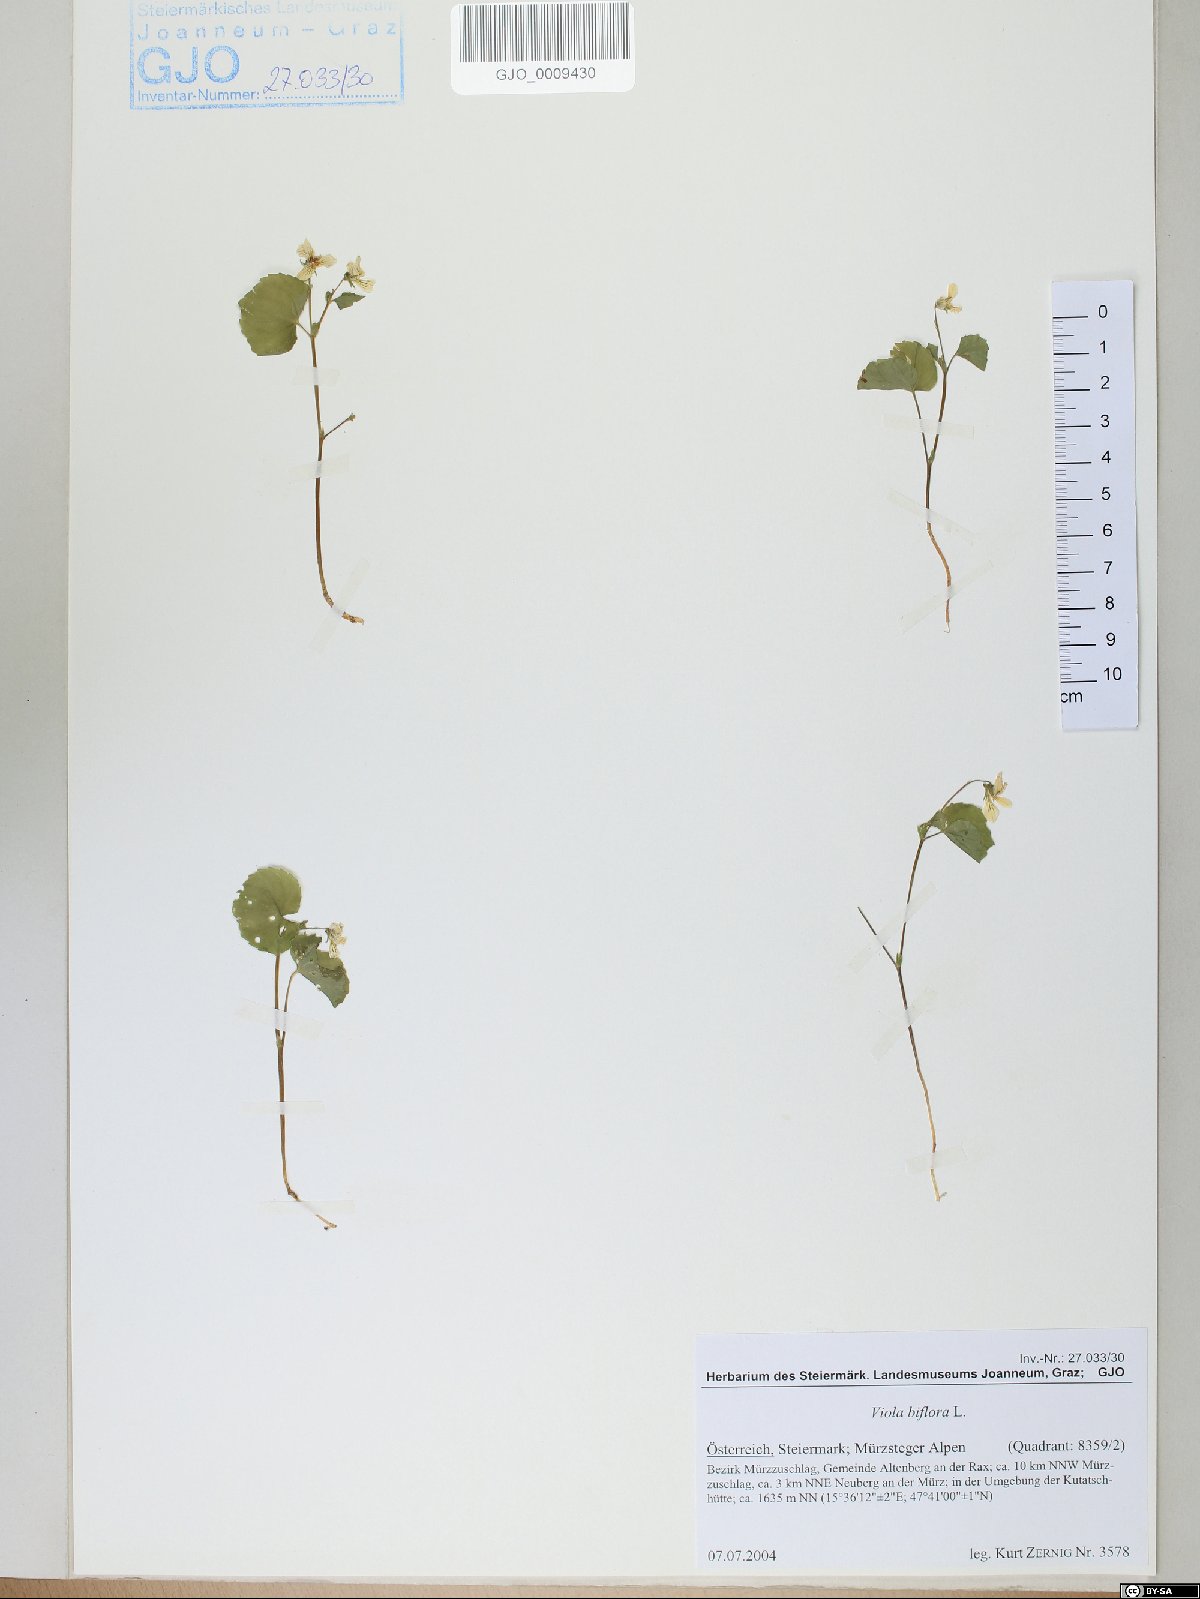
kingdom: Plantae
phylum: Tracheophyta
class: Magnoliopsida
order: Malpighiales
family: Violaceae
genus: Viola
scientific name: Viola biflora
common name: Alpine yellow violet
